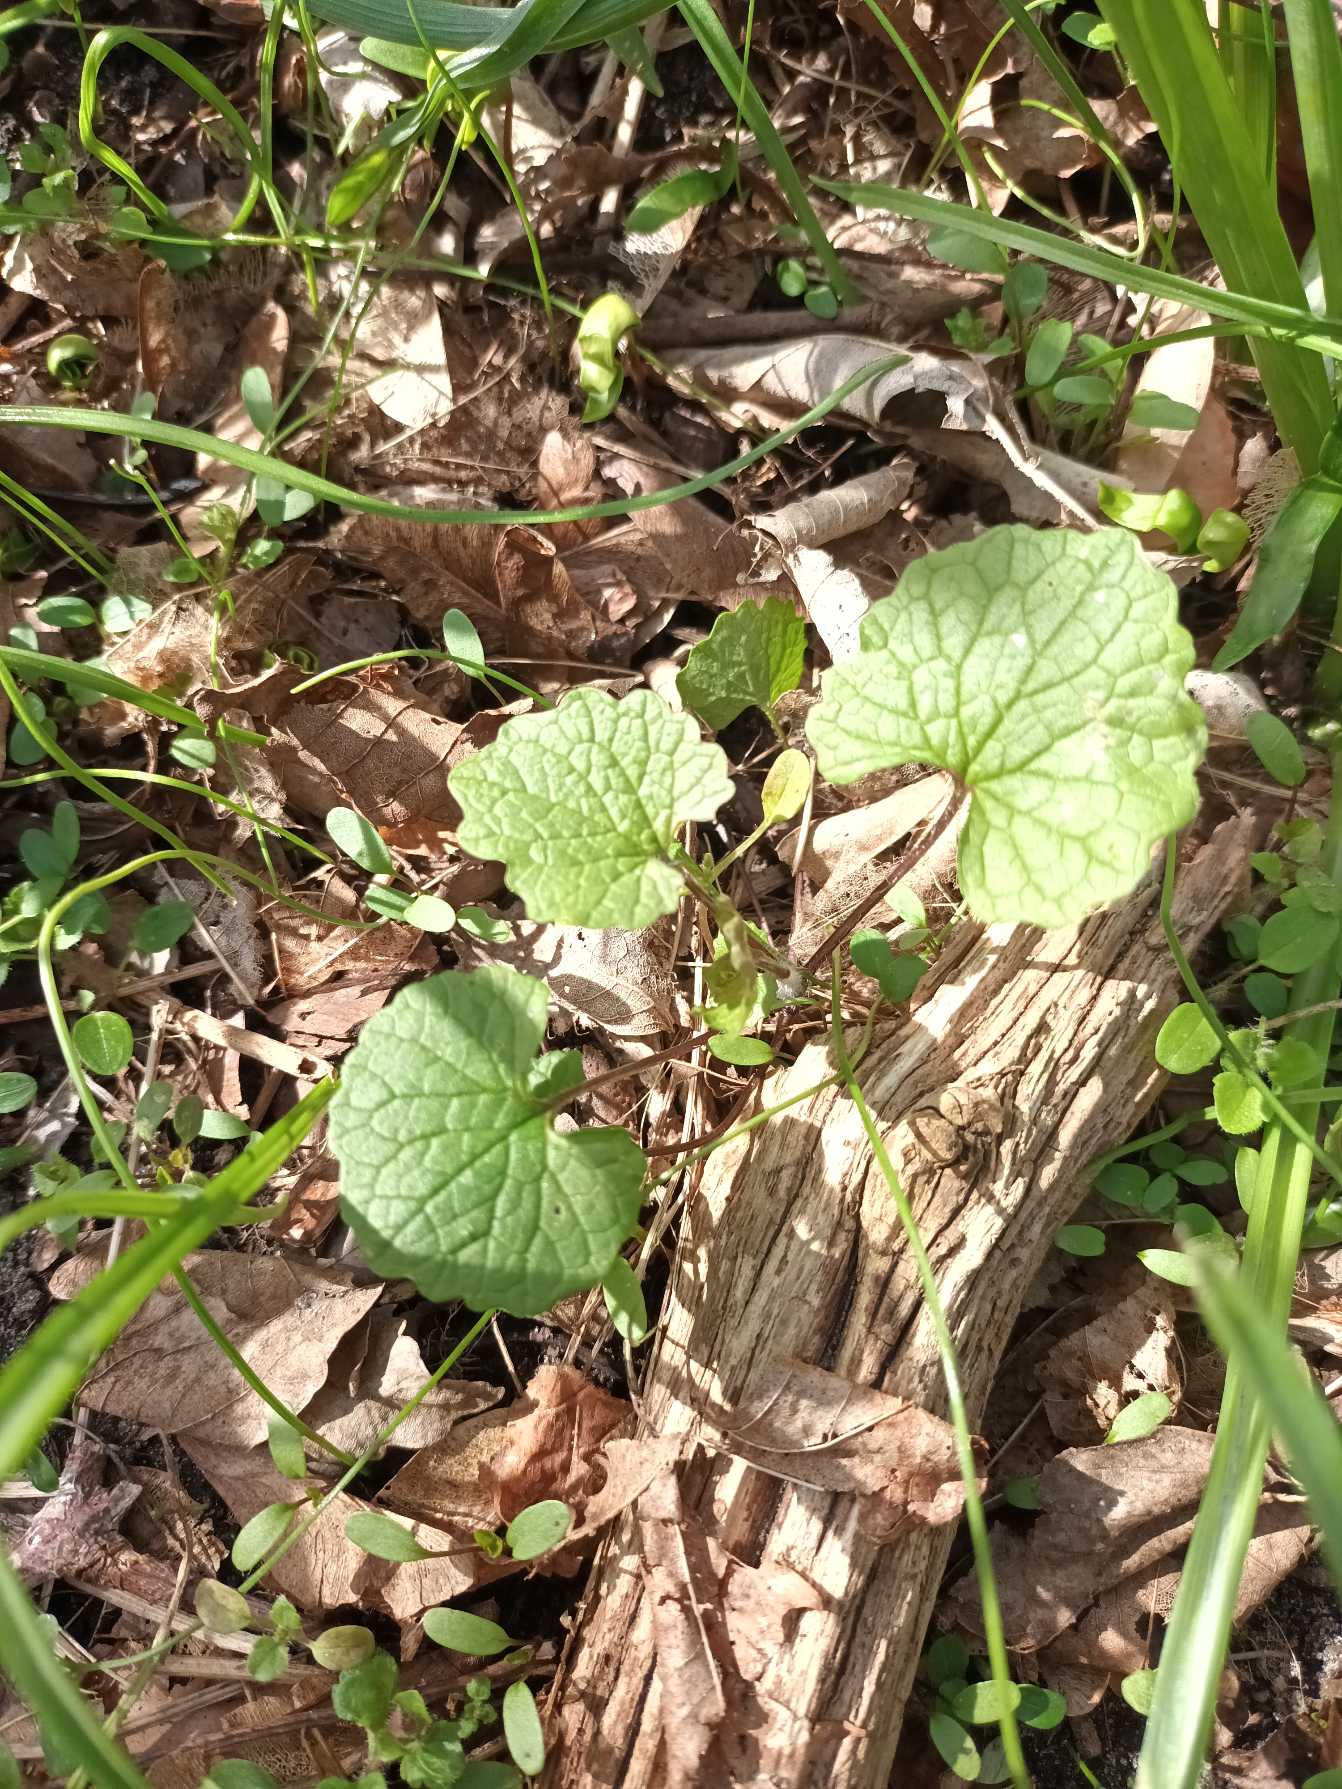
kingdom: Plantae
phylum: Tracheophyta
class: Magnoliopsida
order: Brassicales
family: Brassicaceae
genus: Alliaria
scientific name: Alliaria petiolata
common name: Løgkarse
